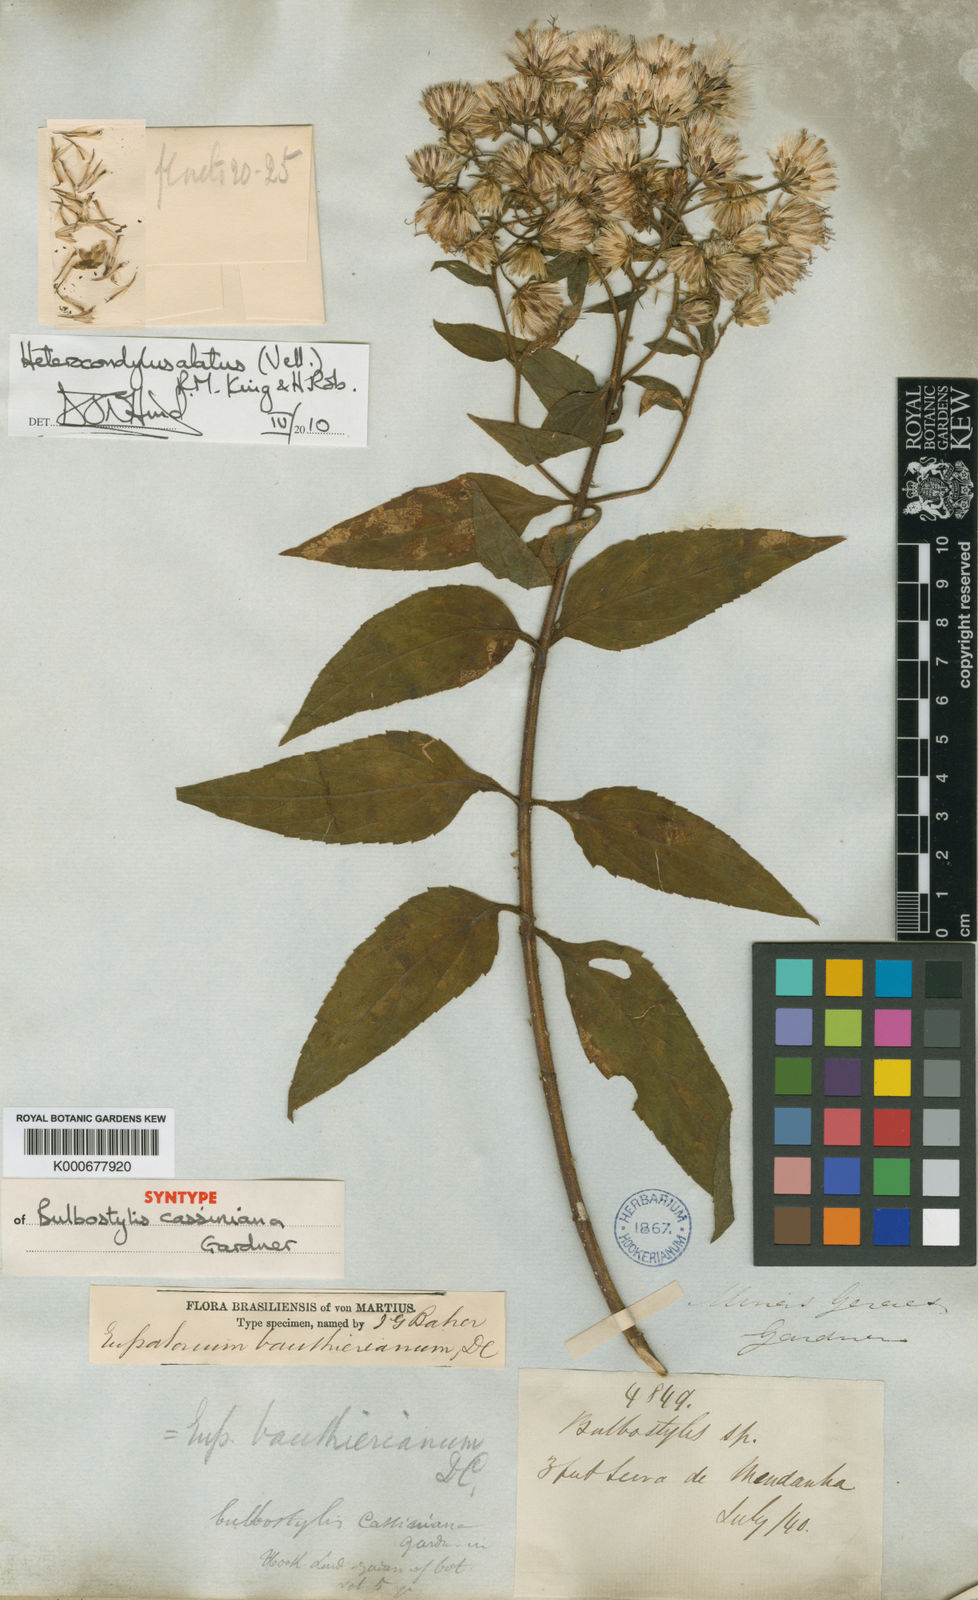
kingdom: Plantae
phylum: Tracheophyta
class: Magnoliopsida
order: Asterales
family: Asteraceae
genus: Heterocondylus
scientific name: Heterocondylus alatus
